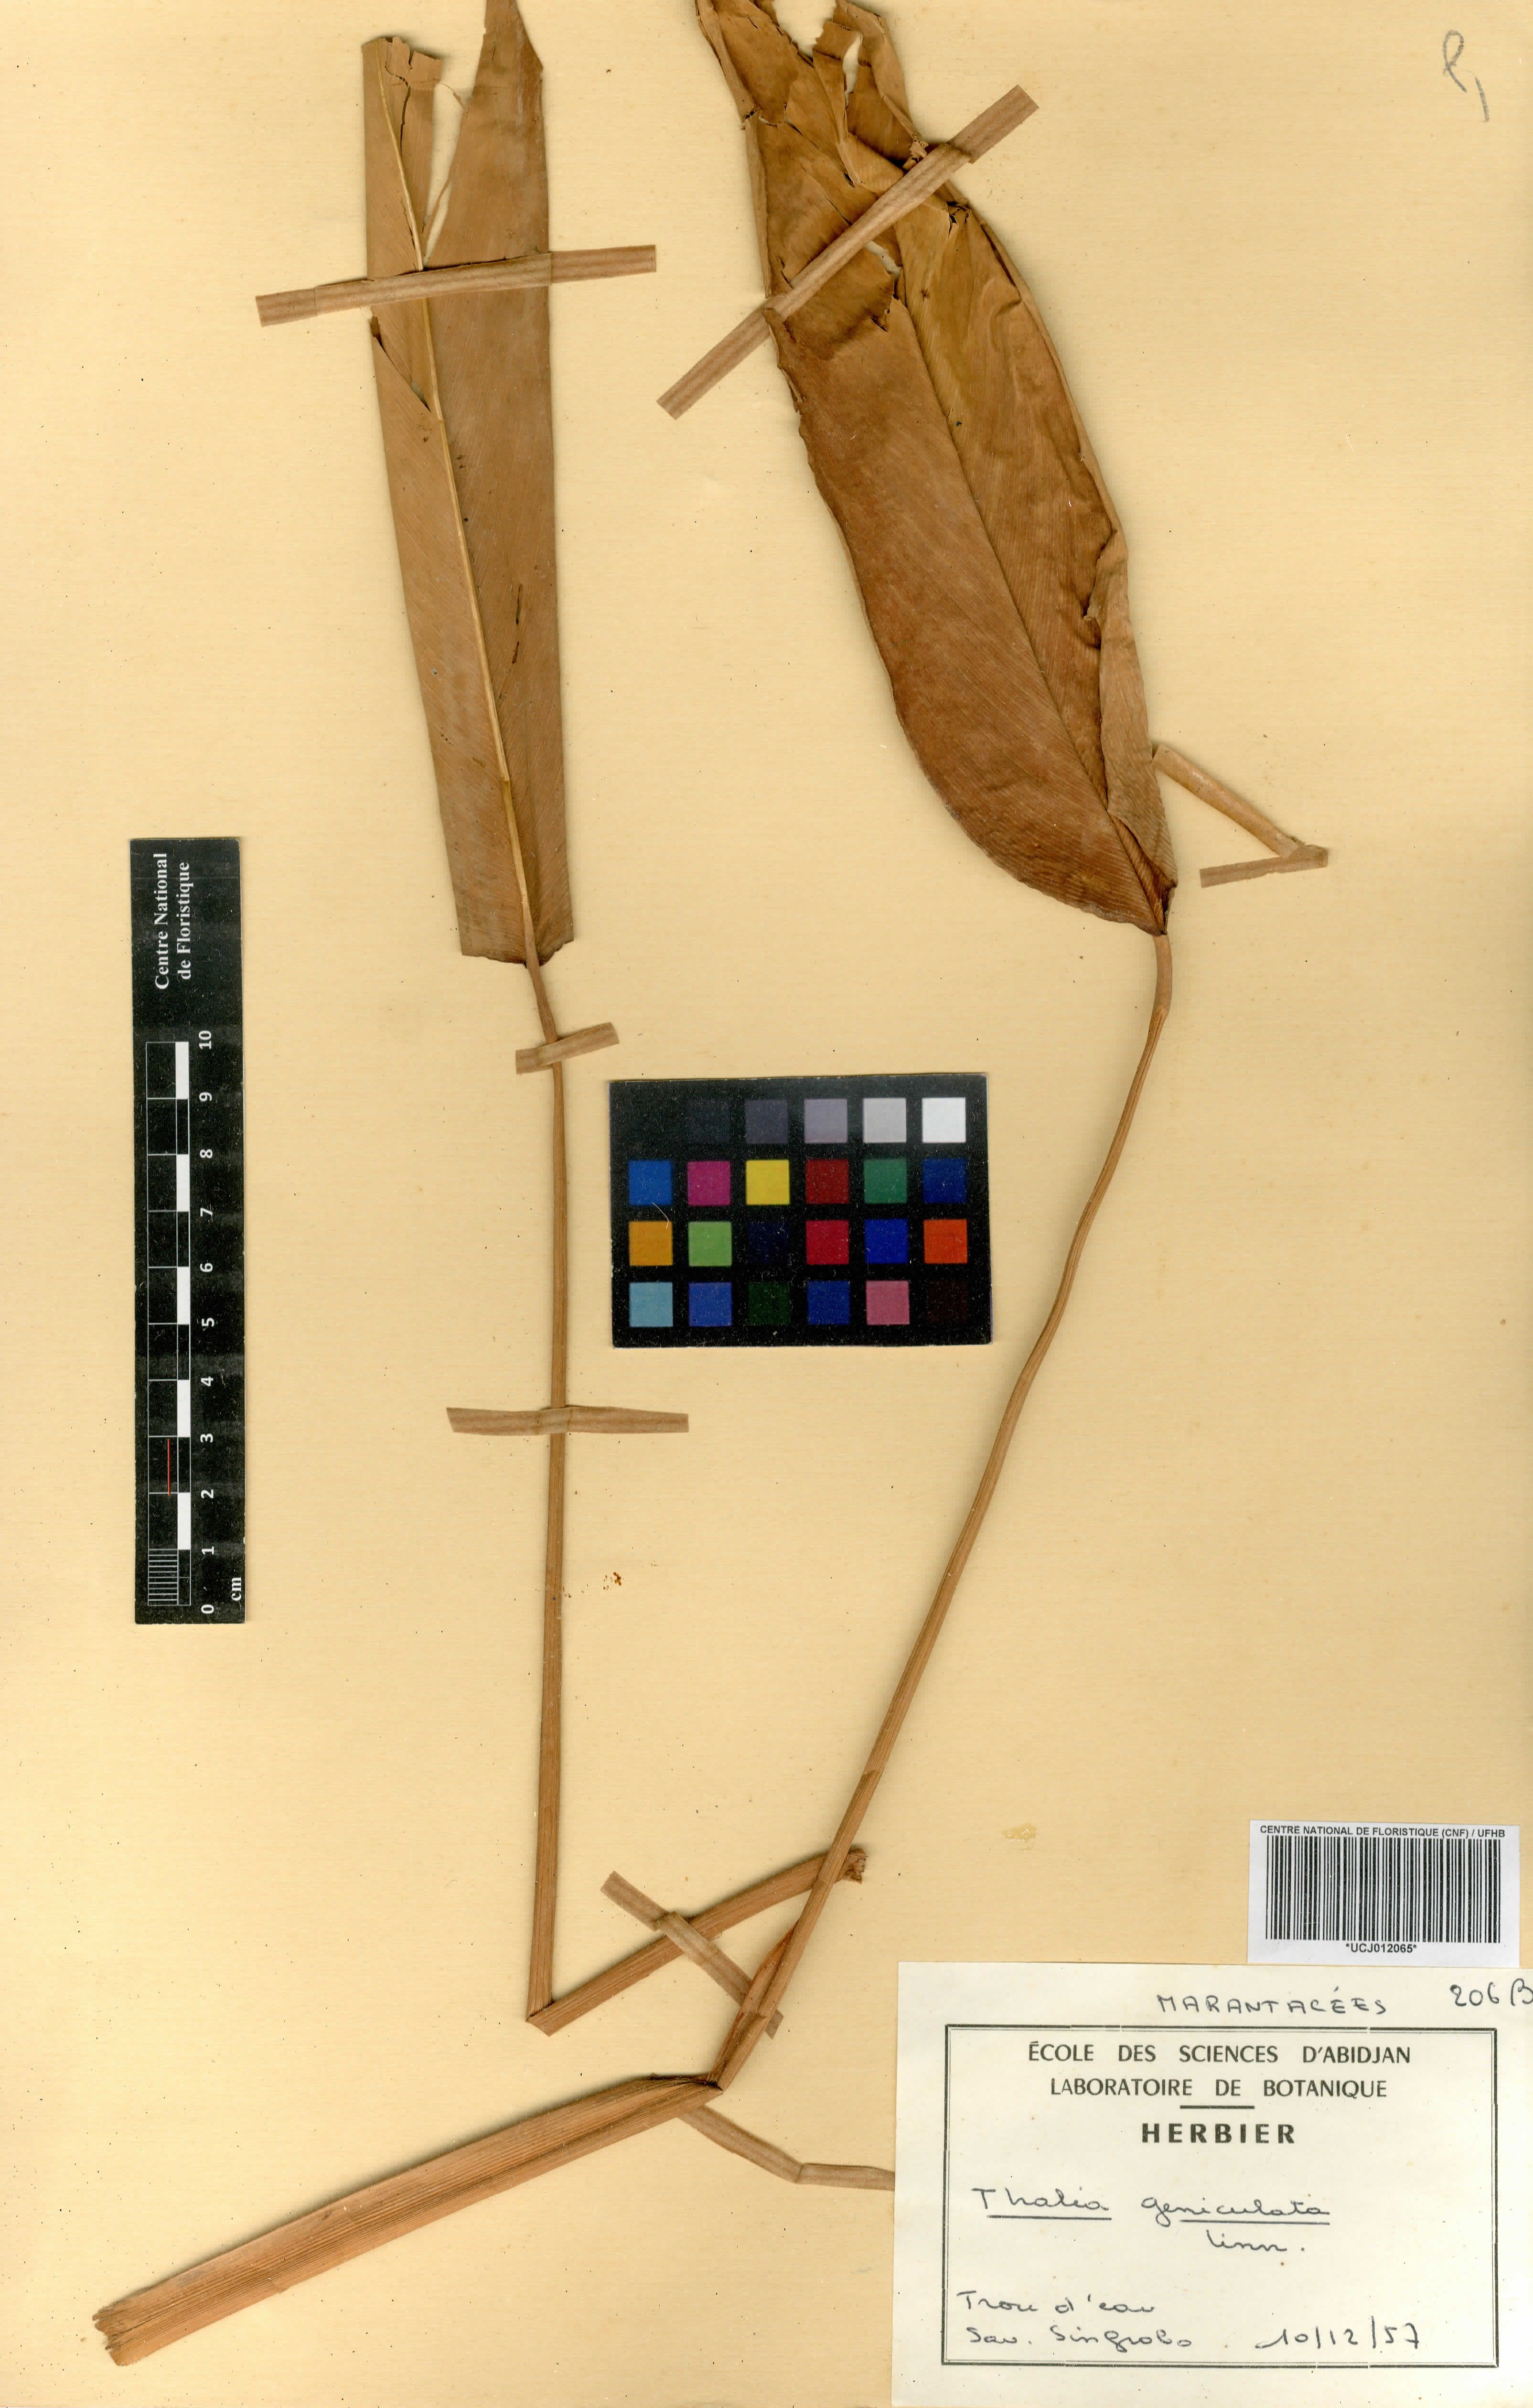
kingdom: Plantae
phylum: Tracheophyta
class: Liliopsida
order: Zingiberales
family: Marantaceae
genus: Thalia
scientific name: Thalia geniculata
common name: Arrowroot
